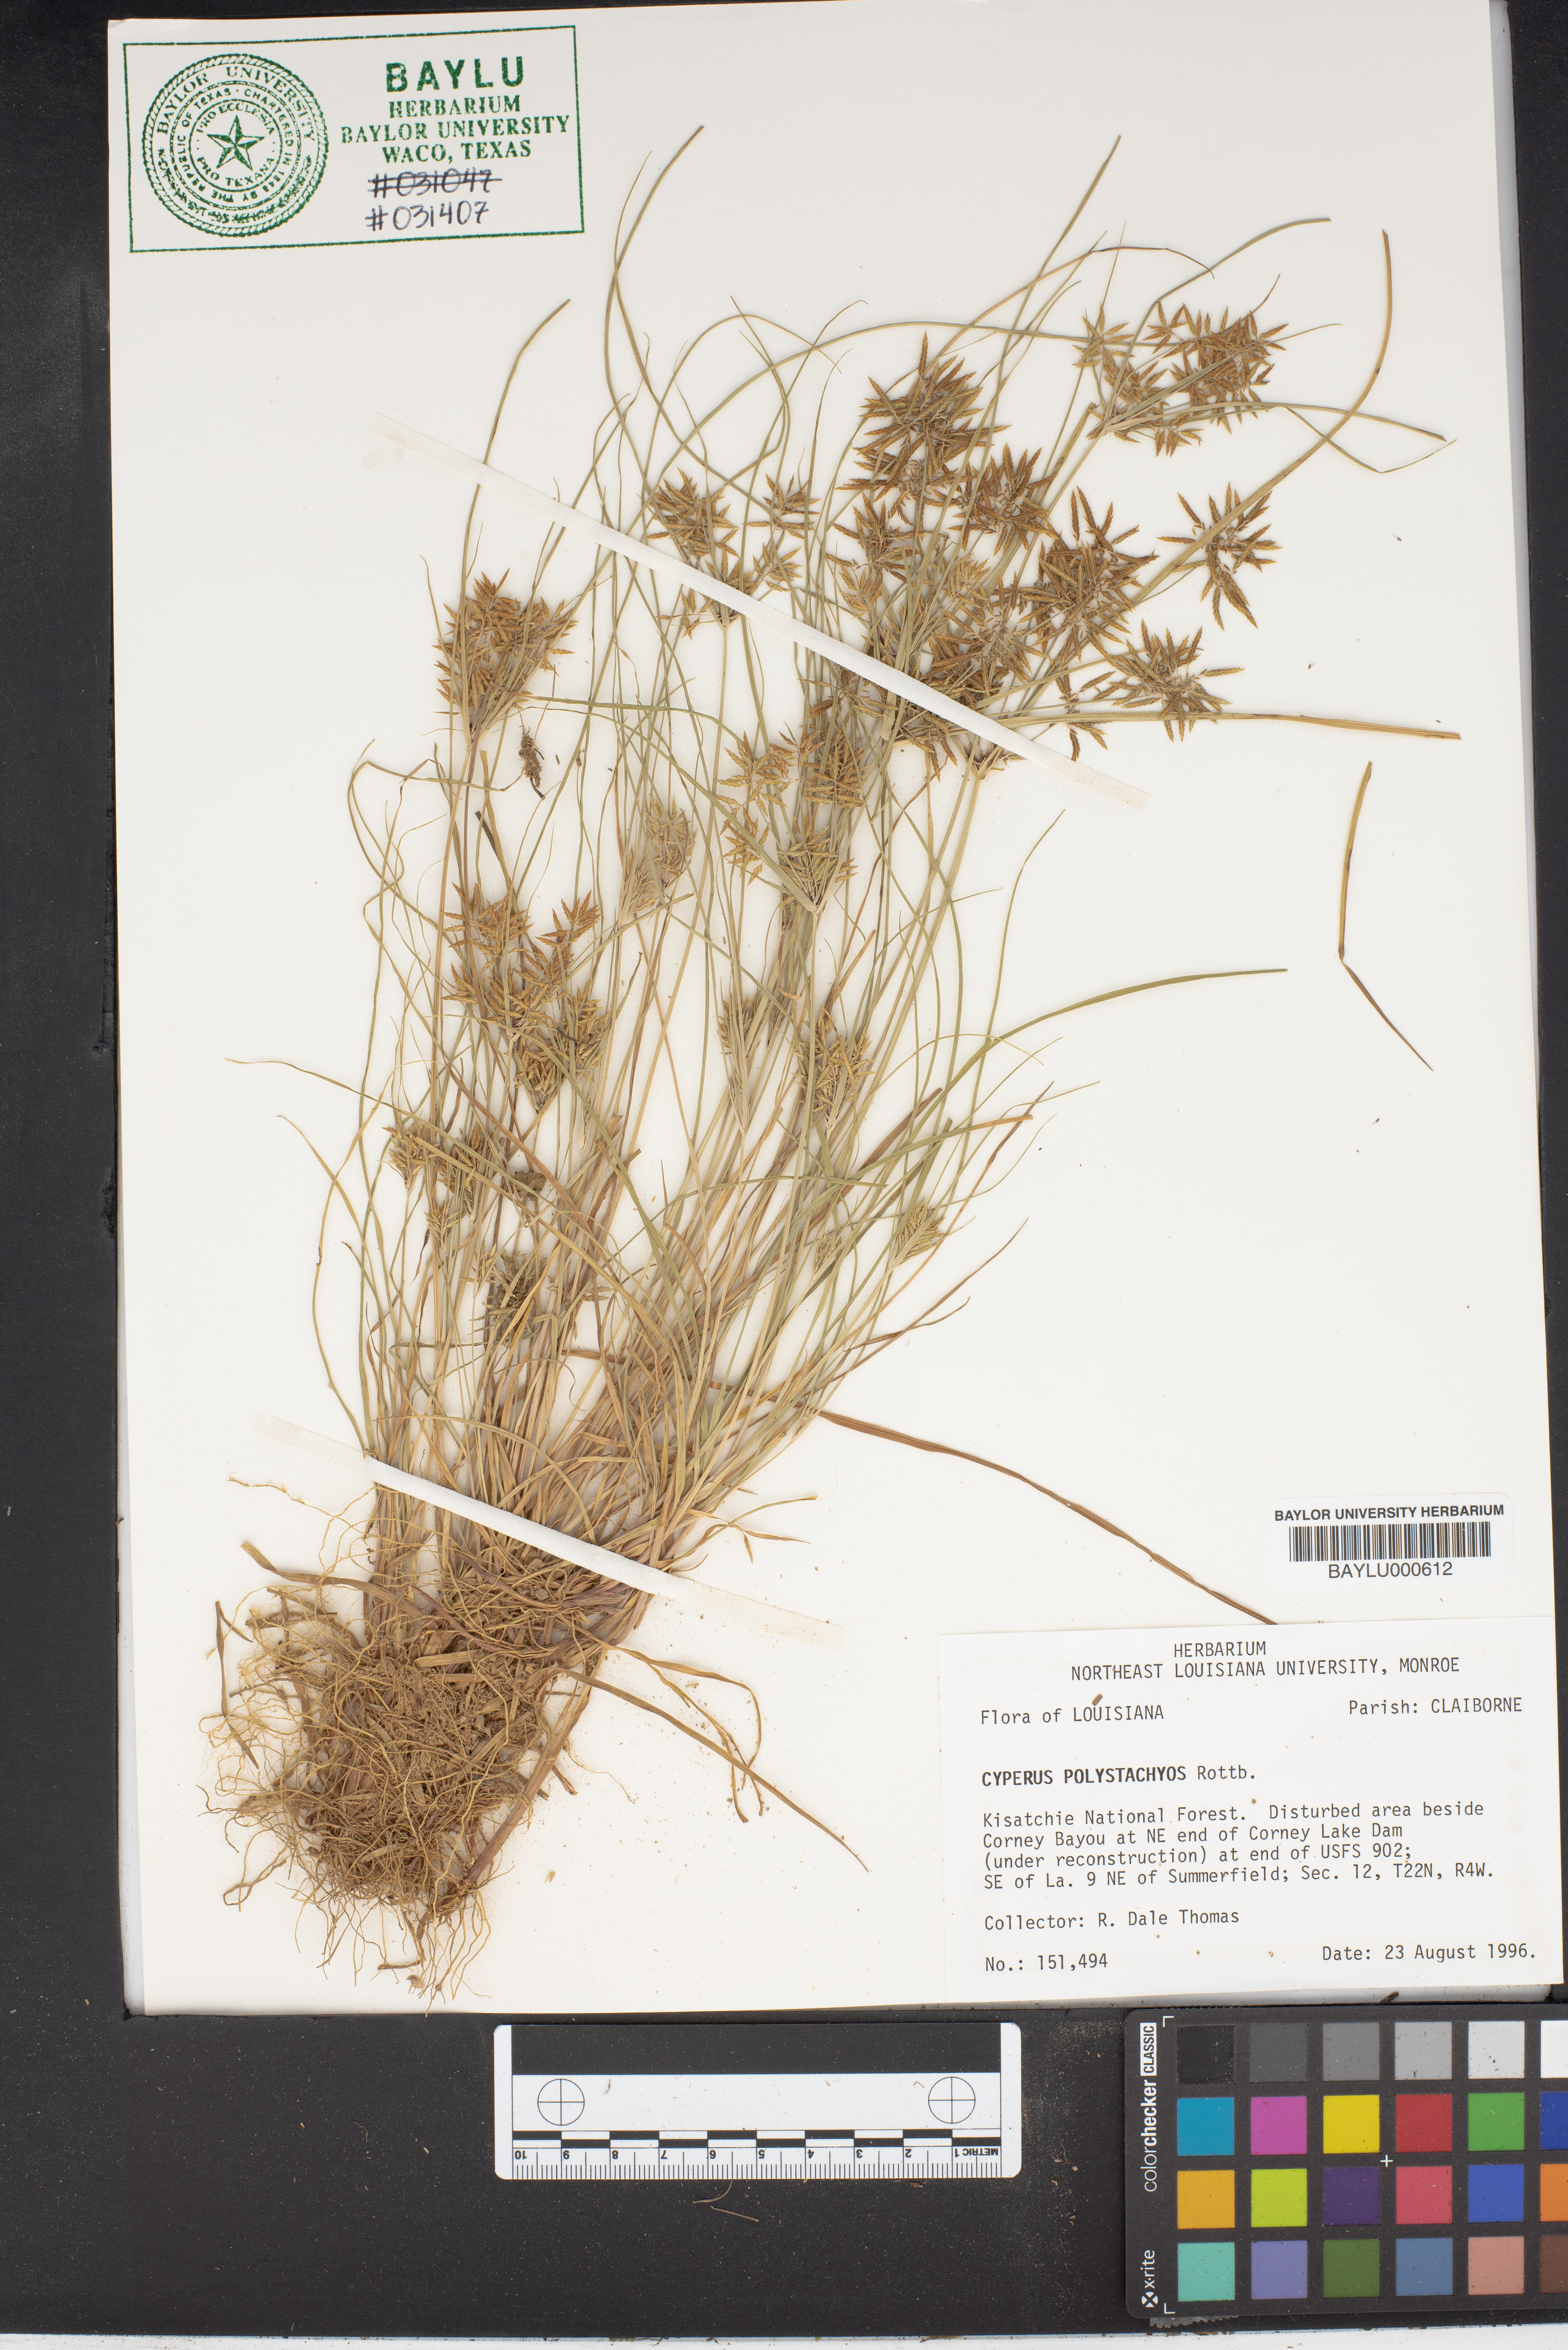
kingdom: Plantae
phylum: Tracheophyta
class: Liliopsida
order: Poales
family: Cyperaceae
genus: Cyperus
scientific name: Cyperus polystachyos
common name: Bunchy flat sedge
